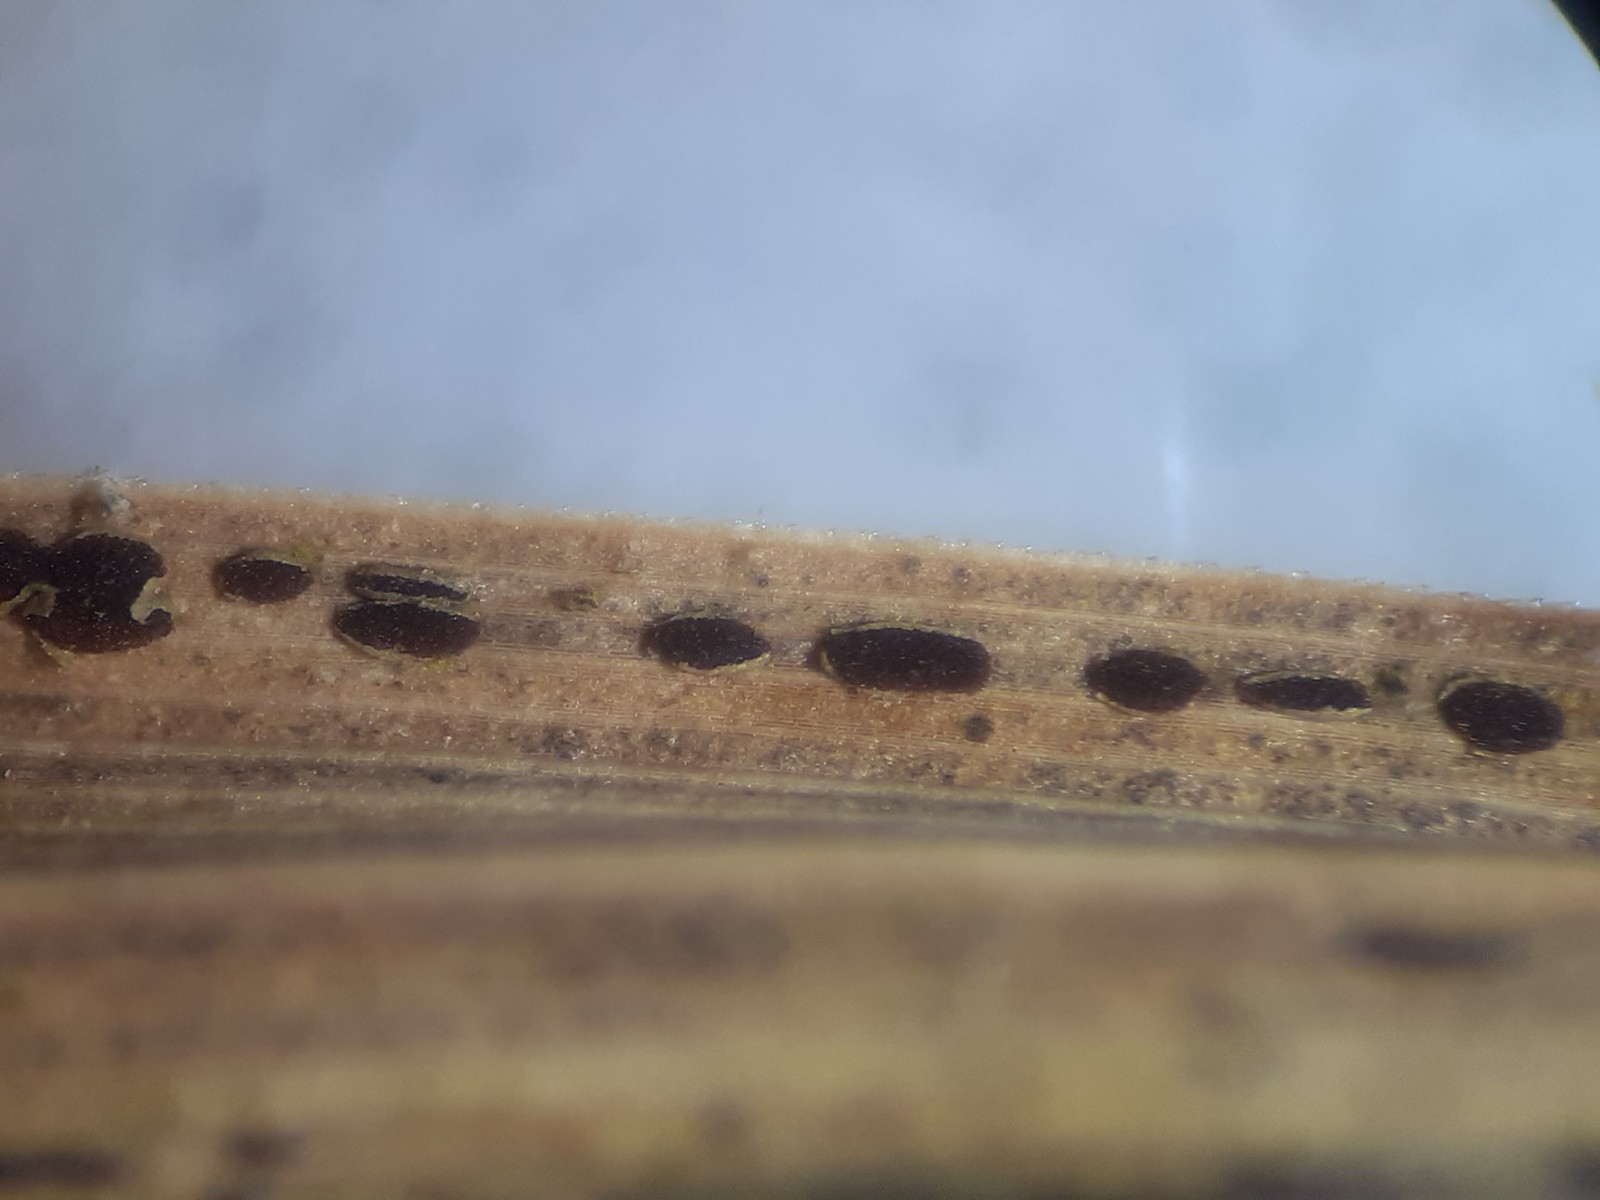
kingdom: Fungi
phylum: Basidiomycota
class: Pucciniomycetes
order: Pucciniales
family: Pucciniaceae
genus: Puccinia
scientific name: Puccinia caricina
